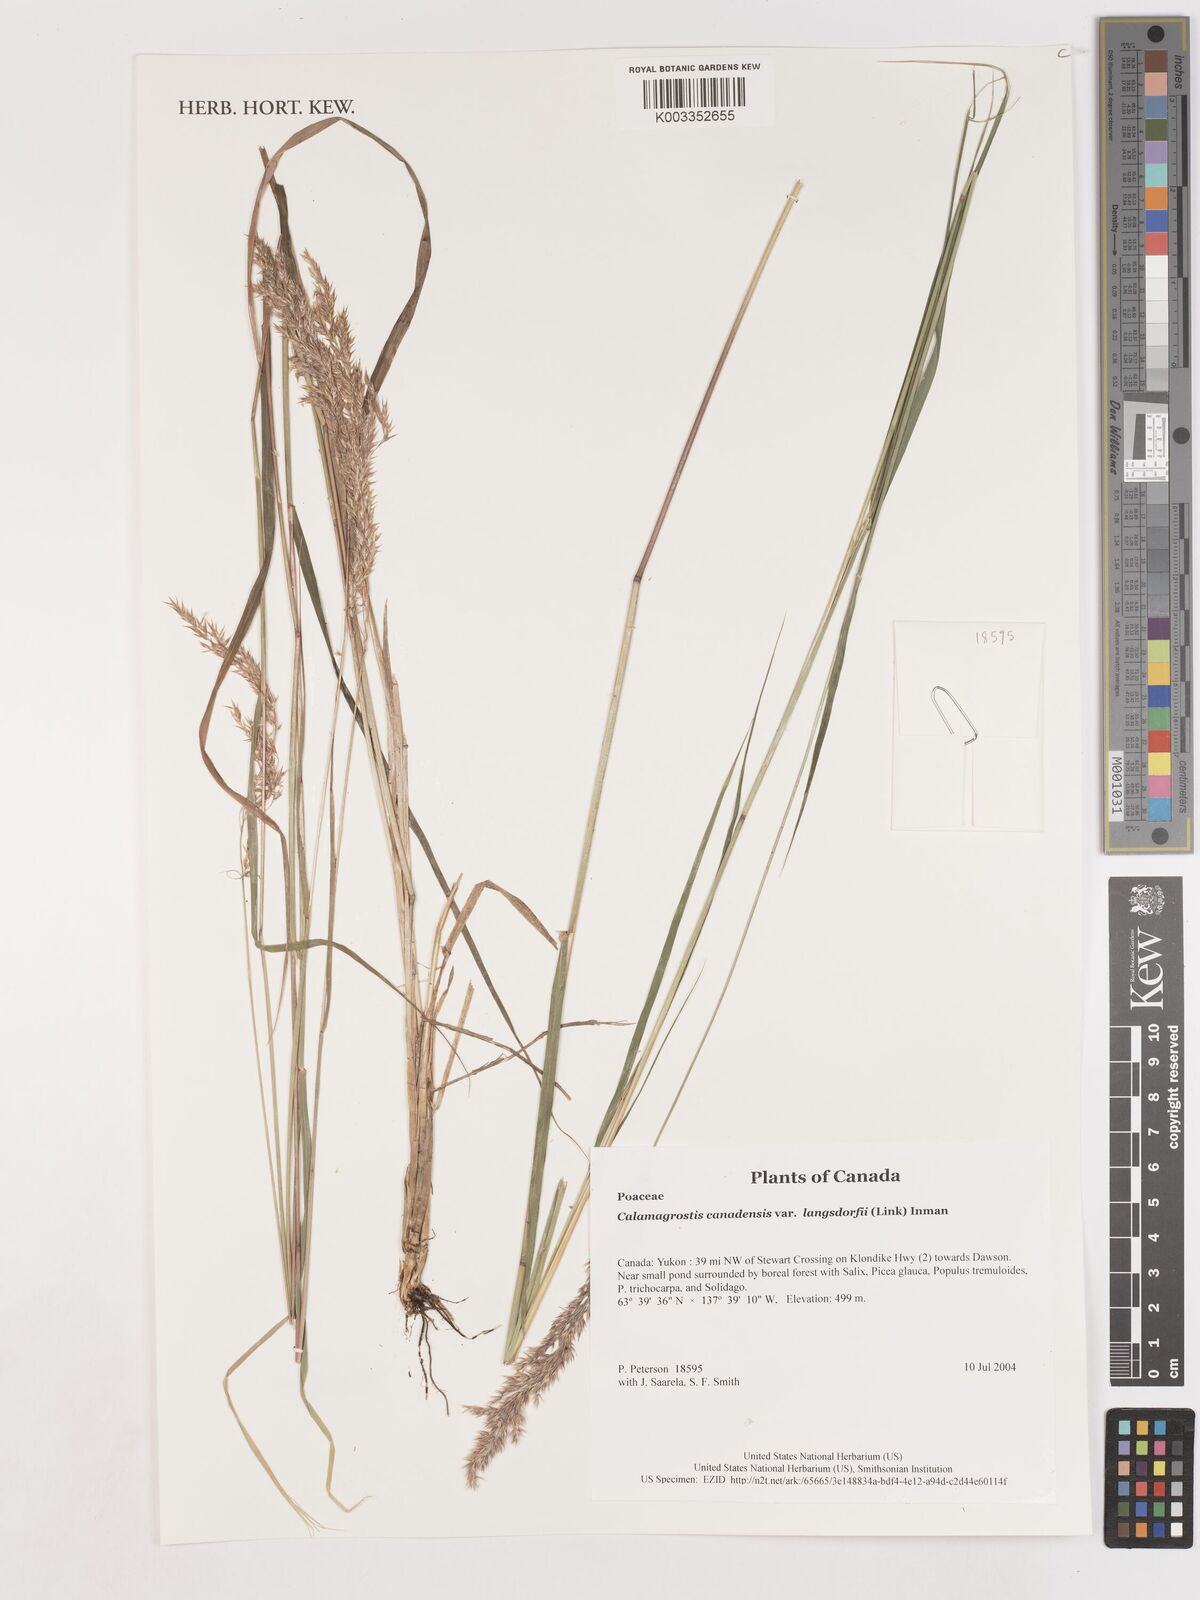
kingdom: Plantae
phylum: Tracheophyta
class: Liliopsida
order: Poales
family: Poaceae
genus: Calamagrostis
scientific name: Calamagrostis canadensis
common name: Canada bluejoint
